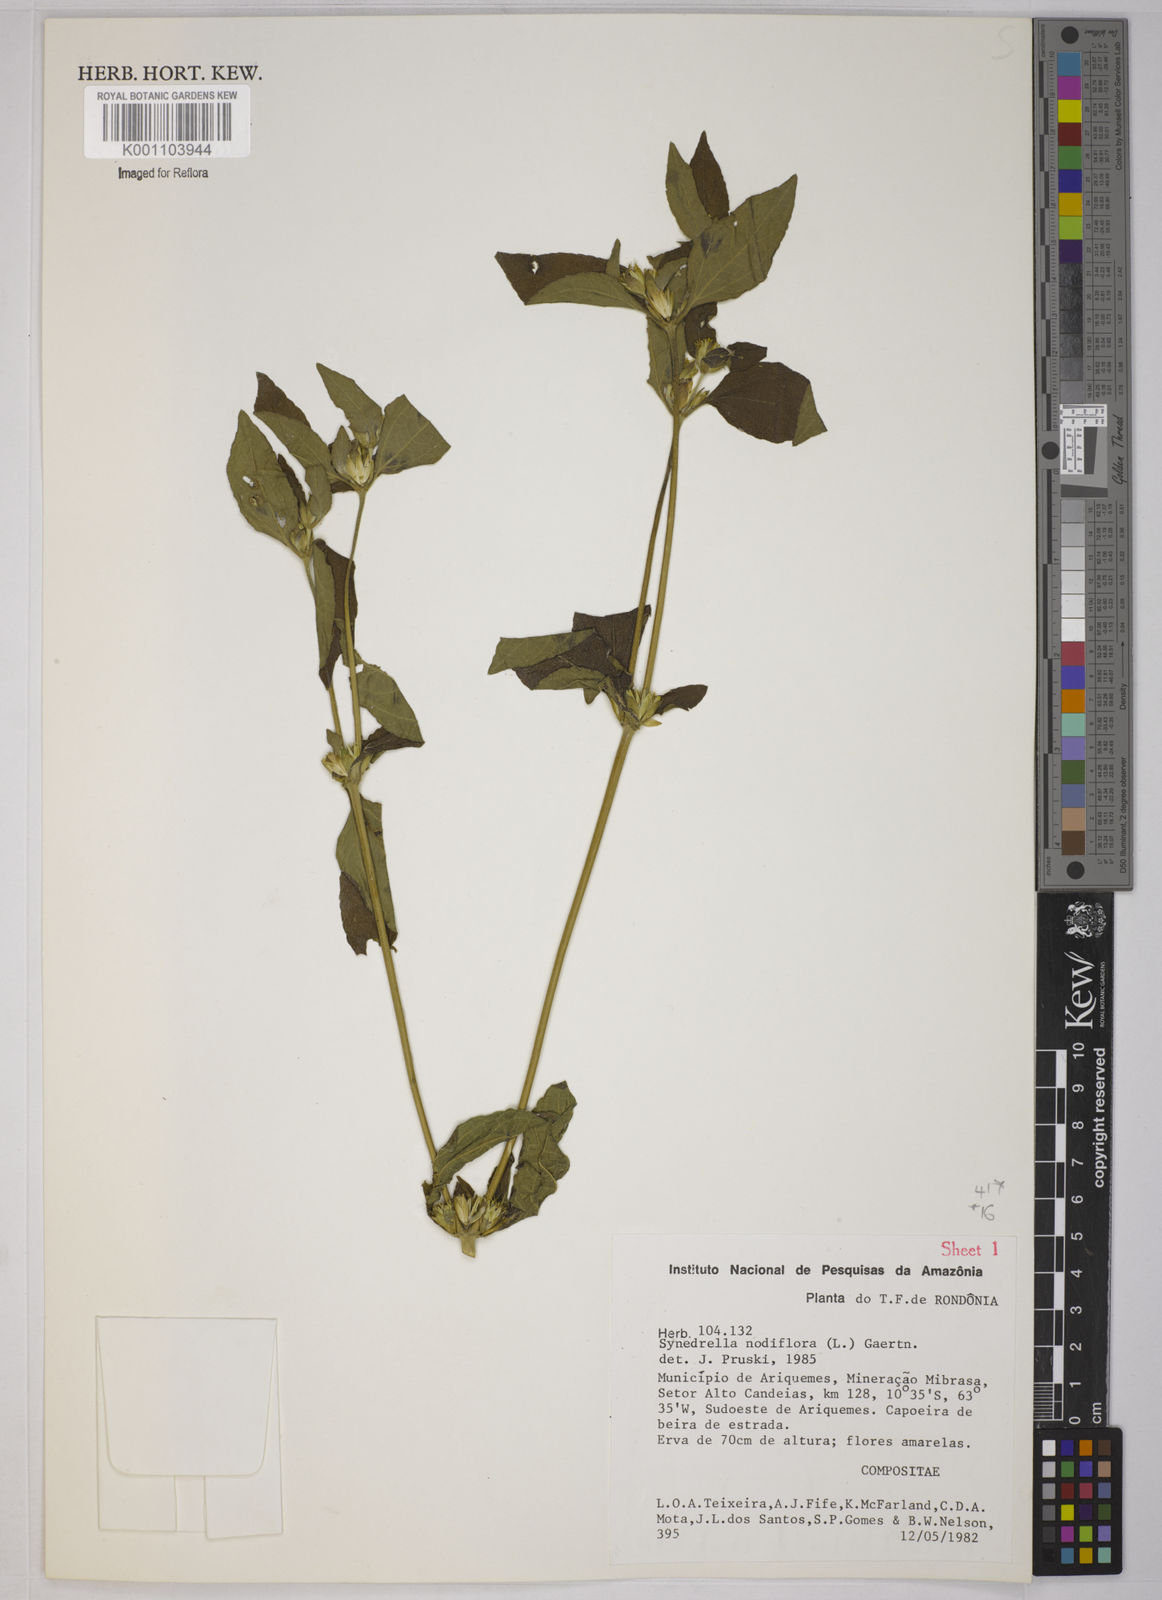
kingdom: Plantae
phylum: Tracheophyta
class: Magnoliopsida
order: Asterales
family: Asteraceae
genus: Synedrella
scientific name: Synedrella nodiflora
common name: Nodeweed
